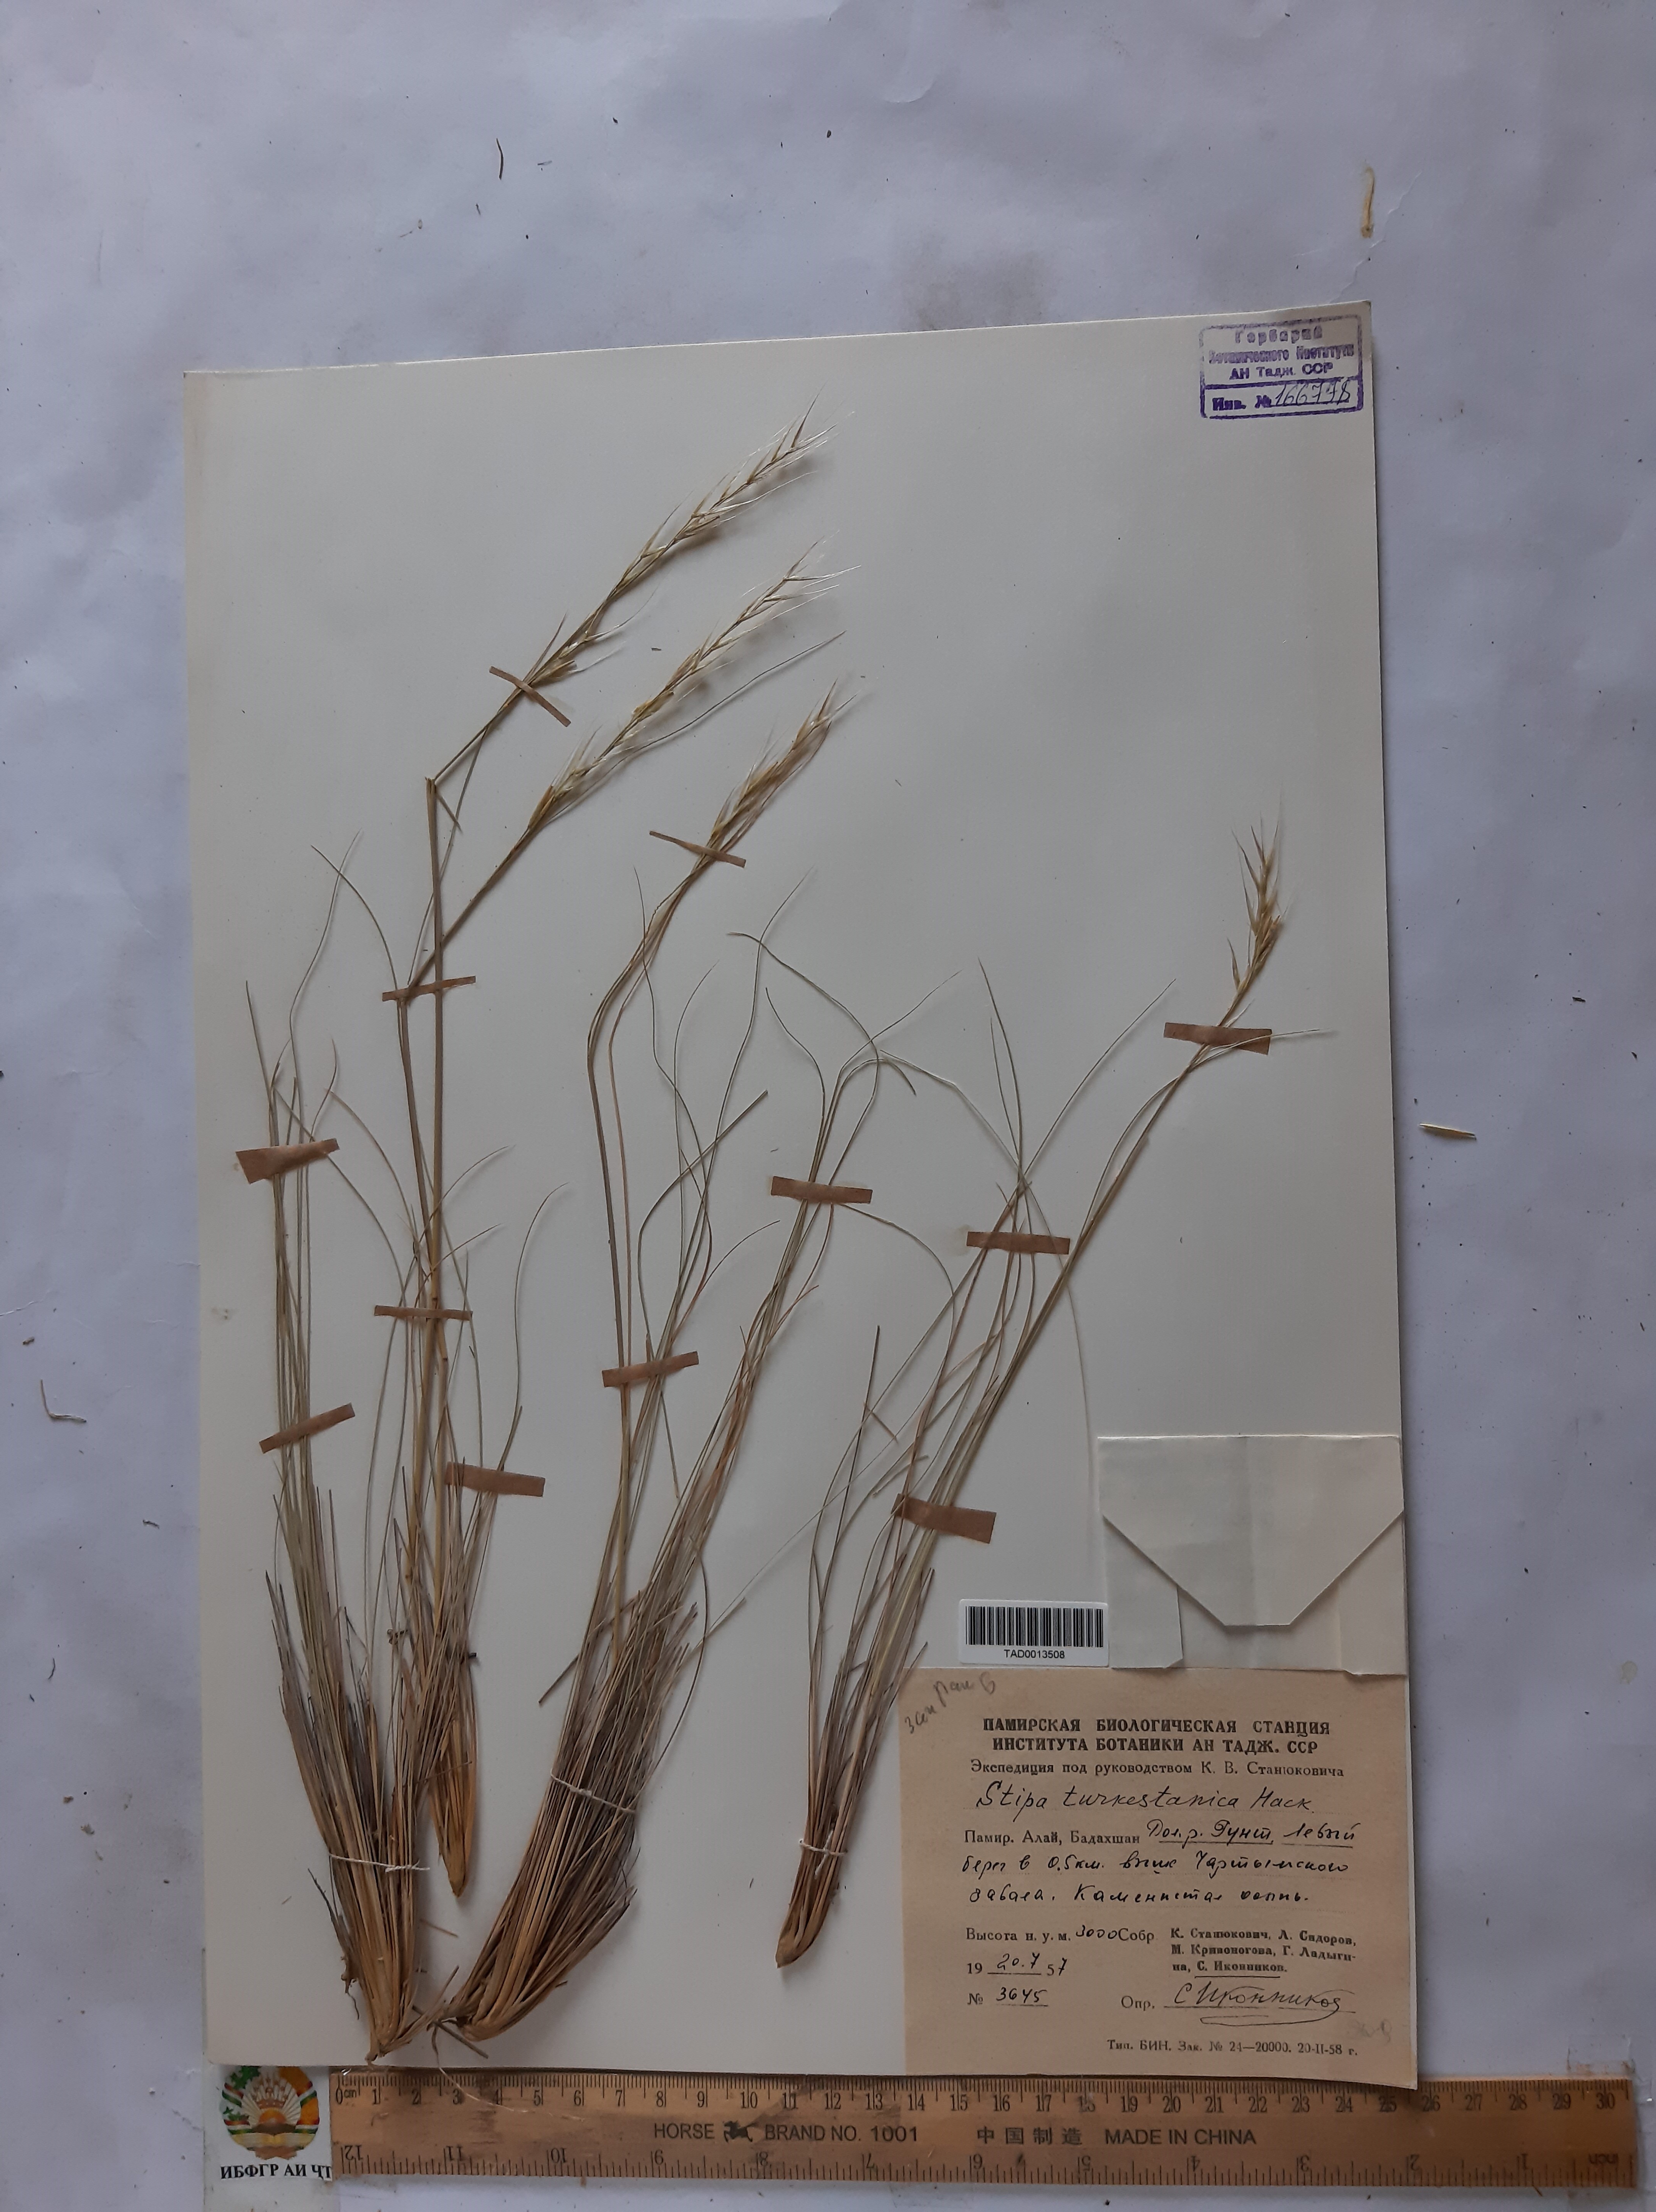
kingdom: Plantae
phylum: Tracheophyta
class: Liliopsida
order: Poales
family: Poaceae
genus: Stipa
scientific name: Stipa turkestanica
